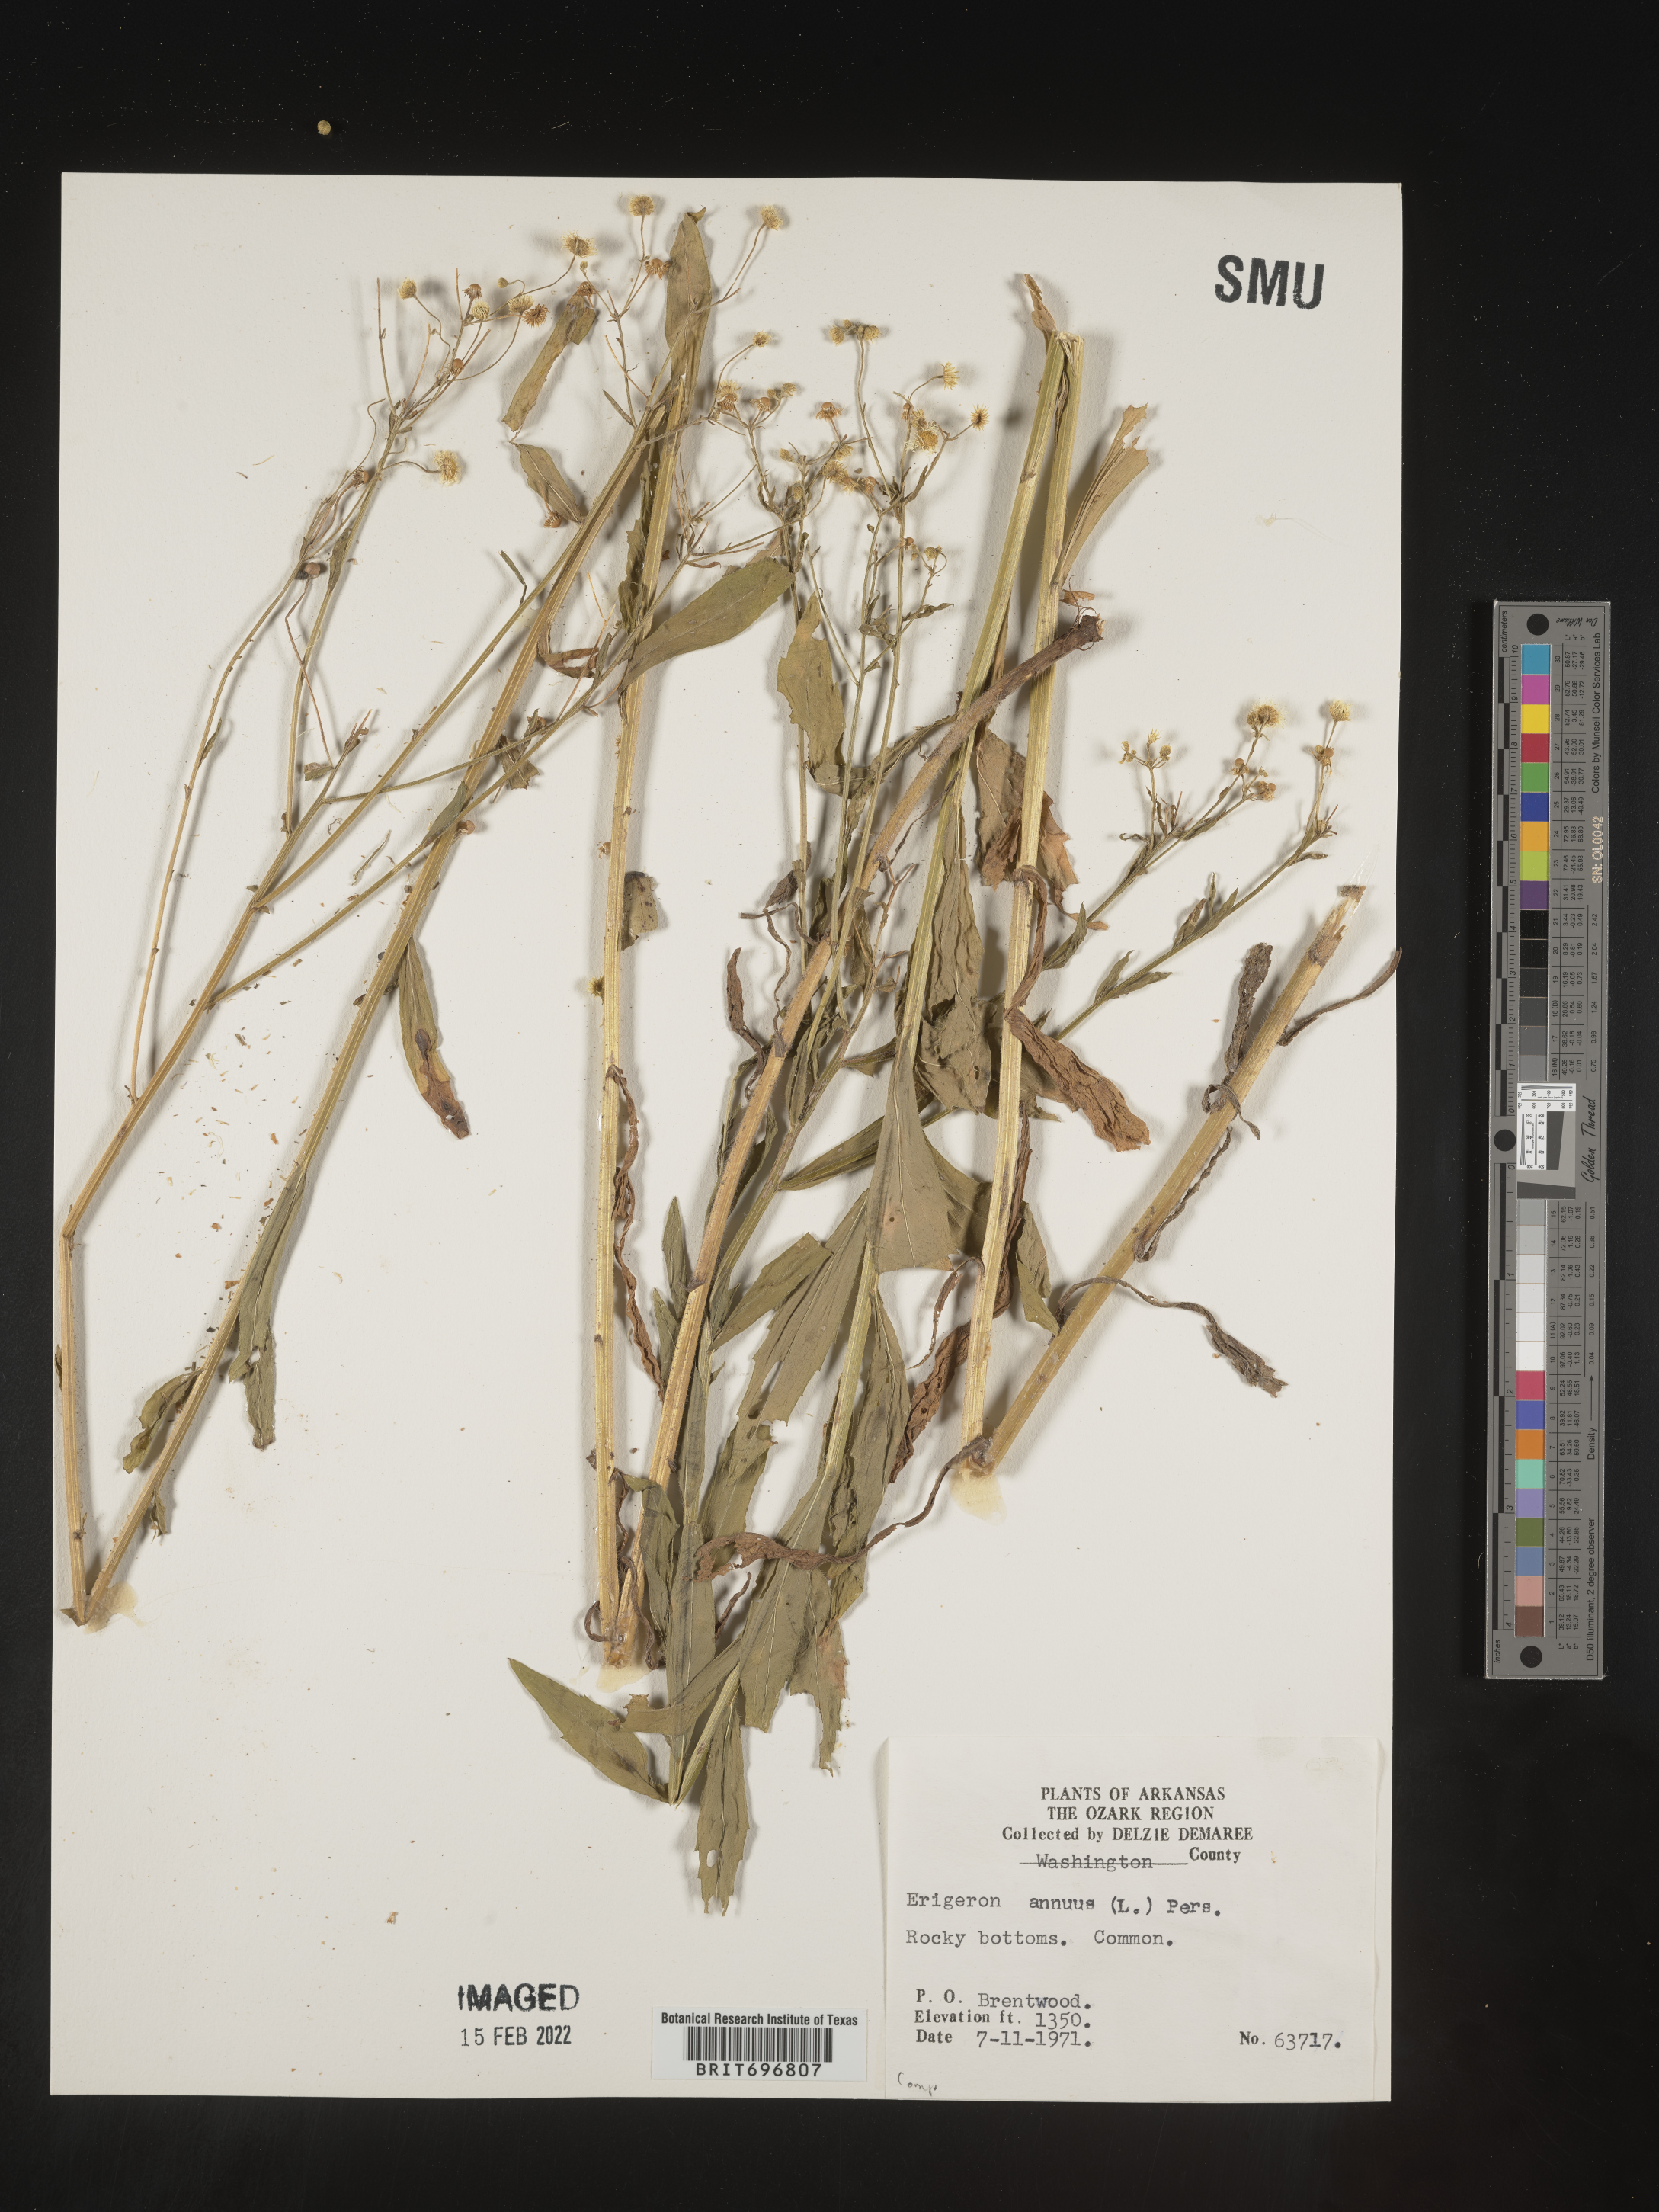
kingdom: Plantae
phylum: Tracheophyta
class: Magnoliopsida
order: Asterales
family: Asteraceae
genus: Erigeron
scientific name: Erigeron annuus
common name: Tall fleabane
